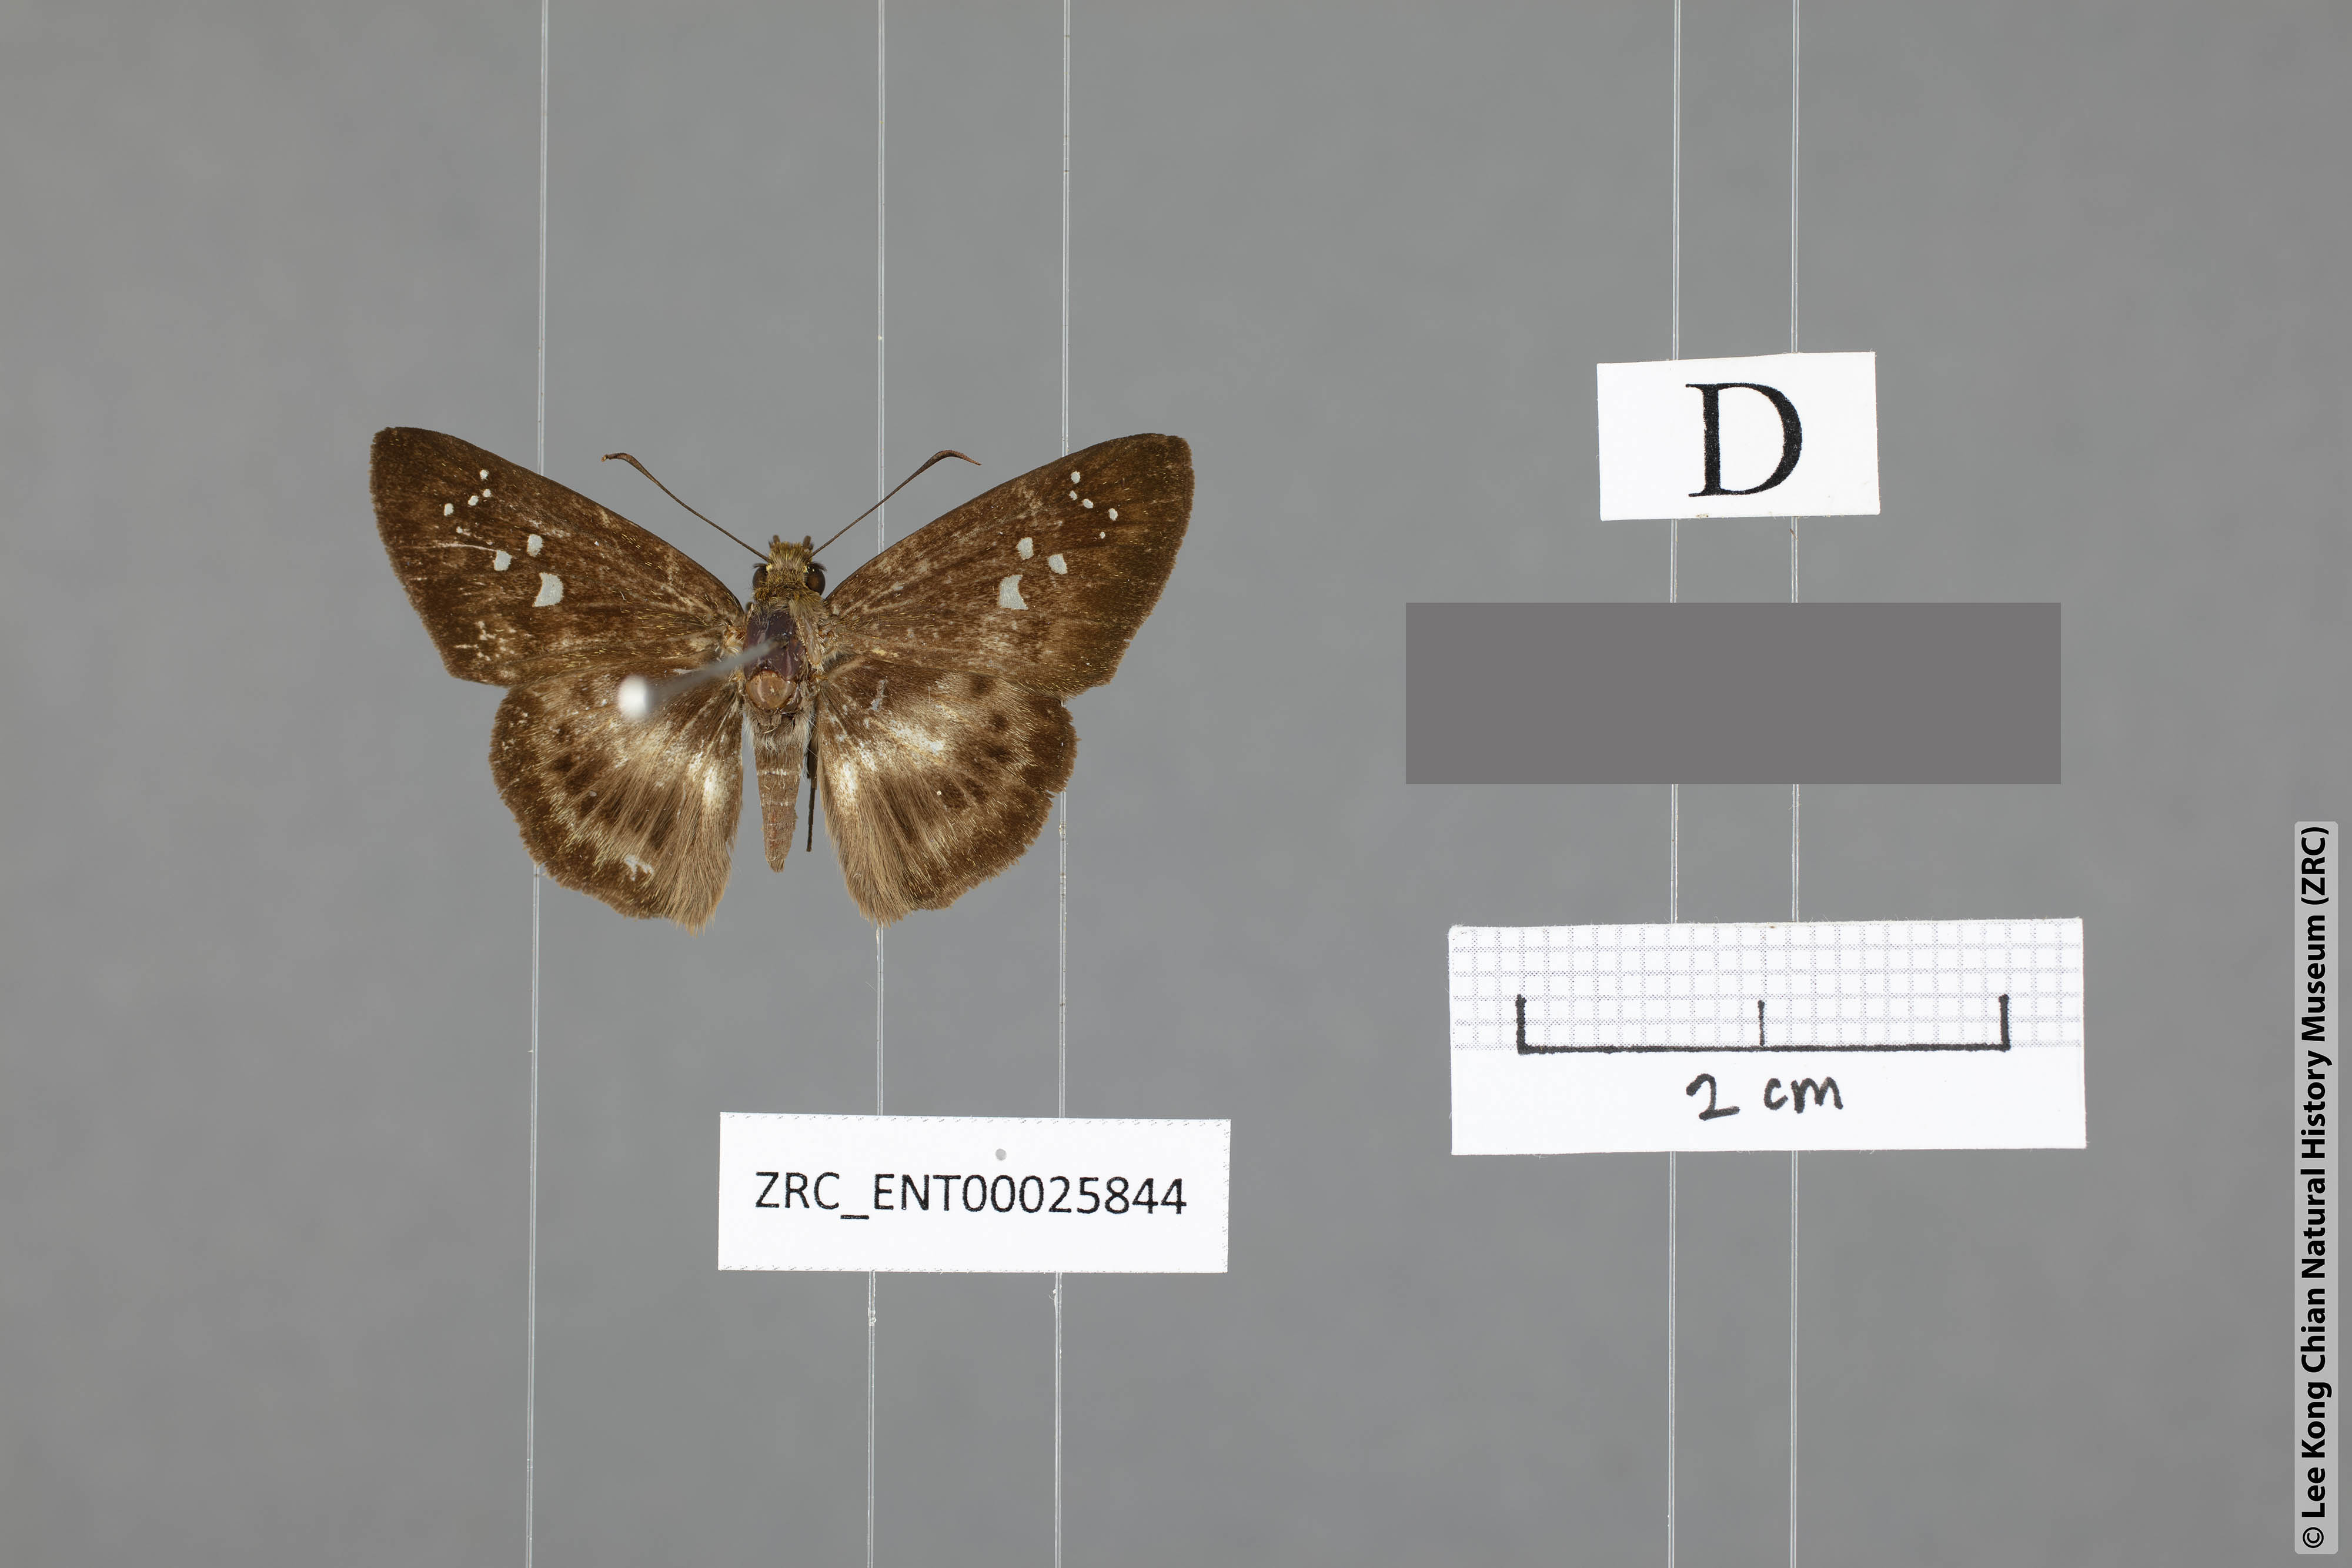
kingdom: Animalia
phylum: Arthropoda
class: Insecta
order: Lepidoptera
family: Hesperiidae
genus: Daimio
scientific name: Daimio
